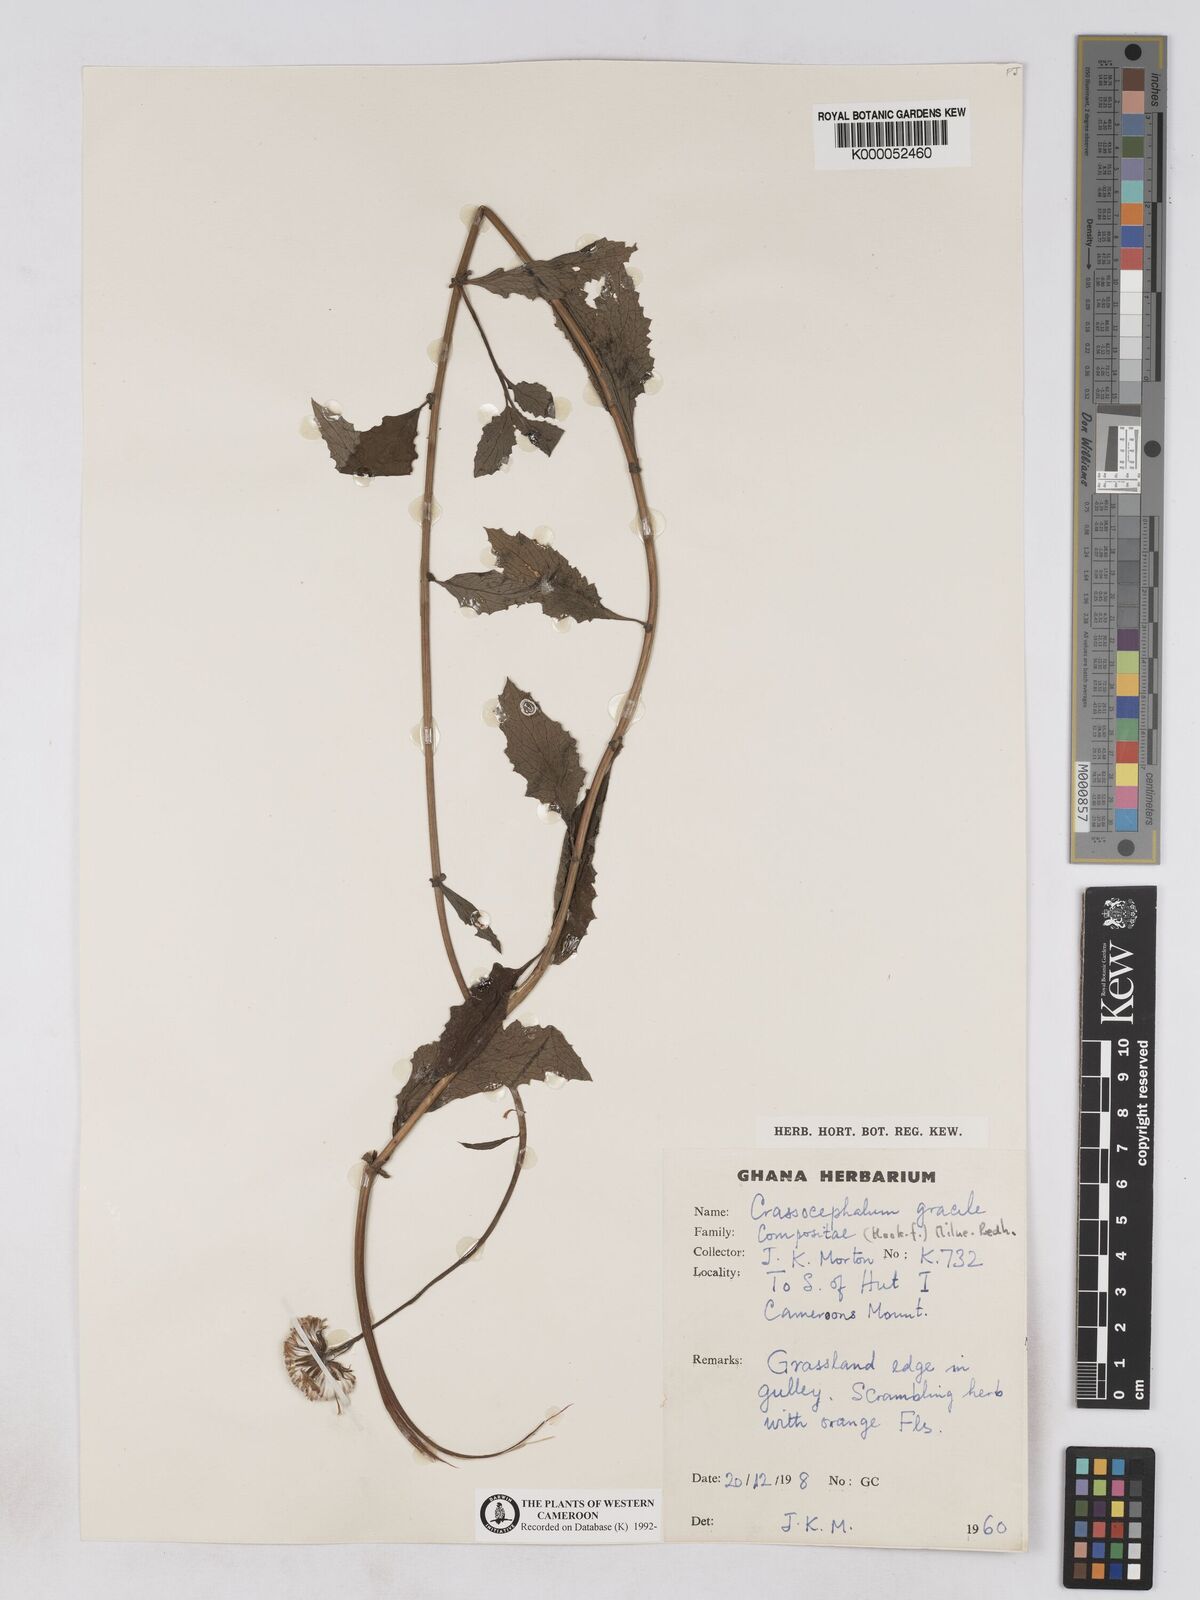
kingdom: Plantae
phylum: Tracheophyta
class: Magnoliopsida
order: Asterales
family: Asteraceae
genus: Crassocephalum
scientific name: Crassocephalum
